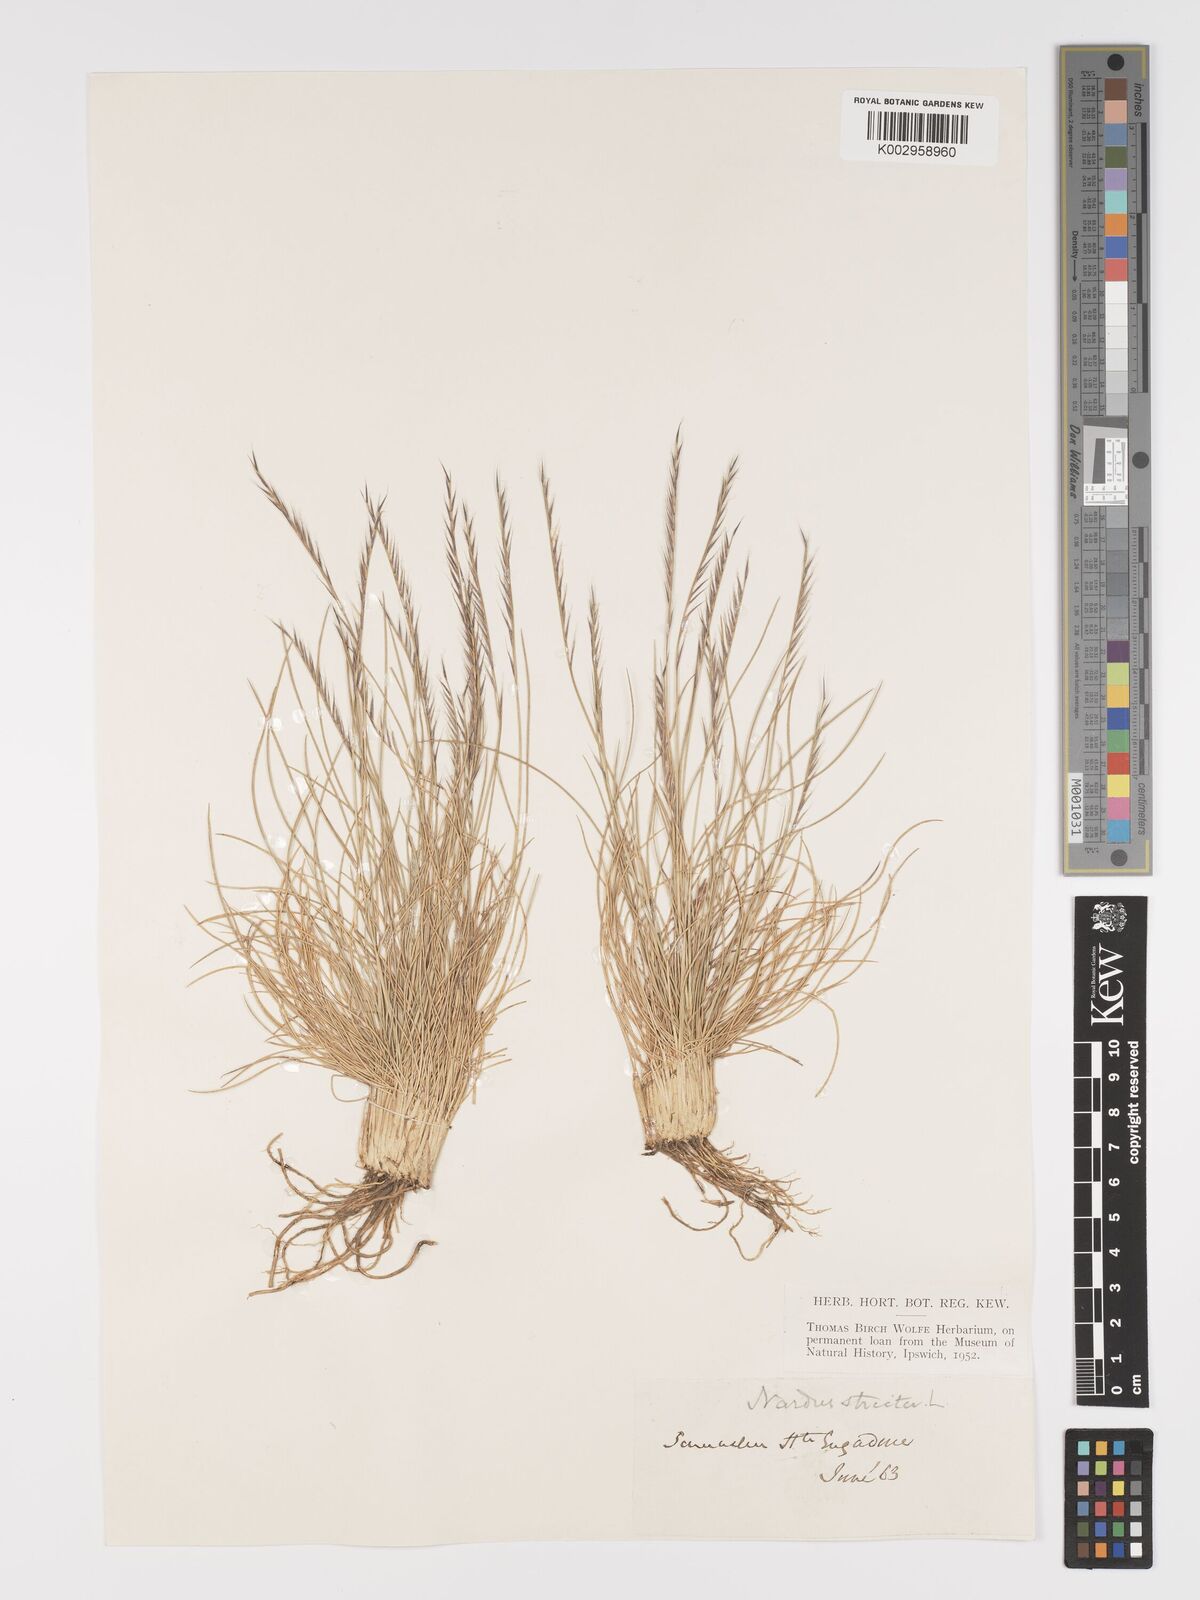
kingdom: Plantae
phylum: Tracheophyta
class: Liliopsida
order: Poales
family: Poaceae
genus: Nardus
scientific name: Nardus stricta
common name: Mat-grass
